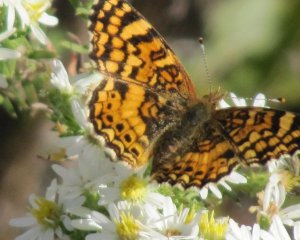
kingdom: Animalia
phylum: Arthropoda
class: Insecta
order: Lepidoptera
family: Nymphalidae
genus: Phyciodes
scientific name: Phyciodes pallida
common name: Pale Crescent
